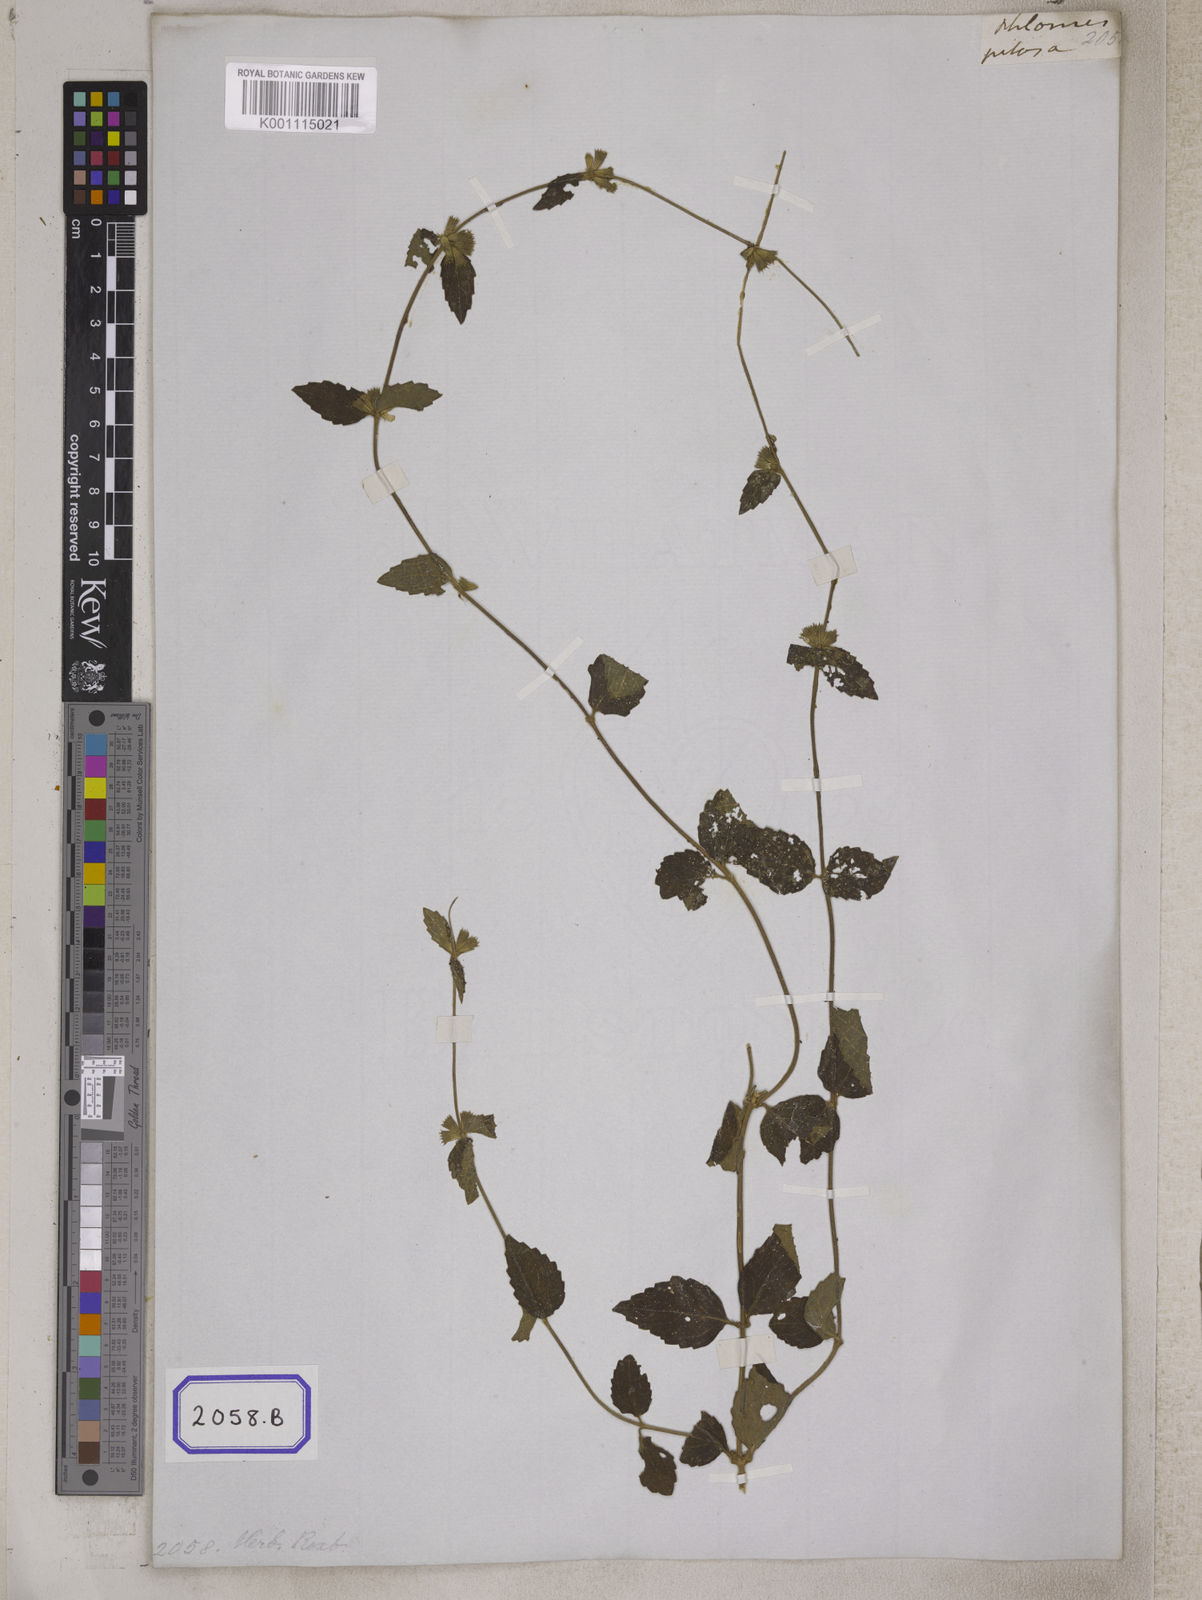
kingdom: Plantae
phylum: Tracheophyta
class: Magnoliopsida
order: Lamiales
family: Lamiaceae
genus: Leucas
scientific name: Leucas pilosa
